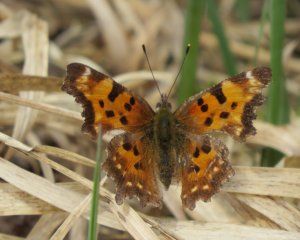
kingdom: Animalia
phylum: Arthropoda
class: Insecta
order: Lepidoptera
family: Nymphalidae
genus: Polygonia
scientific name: Polygonia faunus
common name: Green Comma
